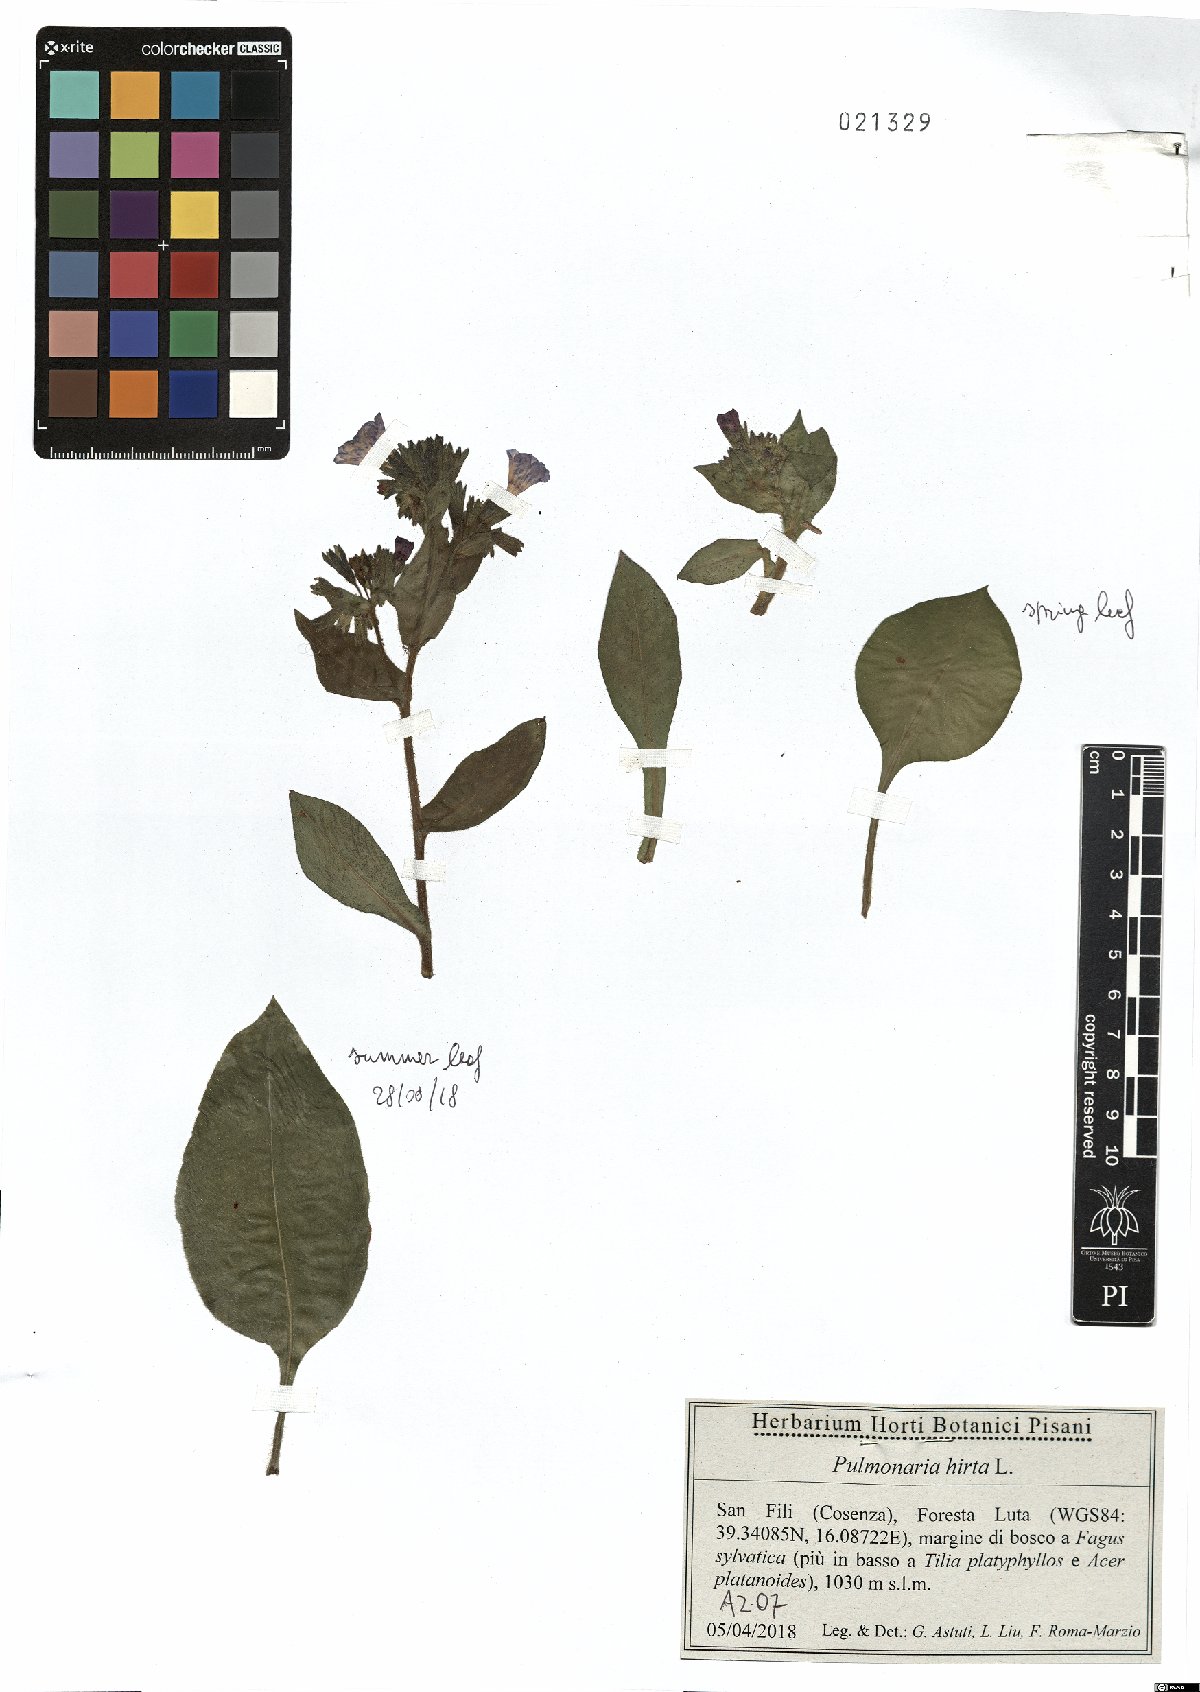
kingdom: Plantae
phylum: Tracheophyta
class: Magnoliopsida
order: Boraginales
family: Boraginaceae
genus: Pulmonaria
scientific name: Pulmonaria hirta
